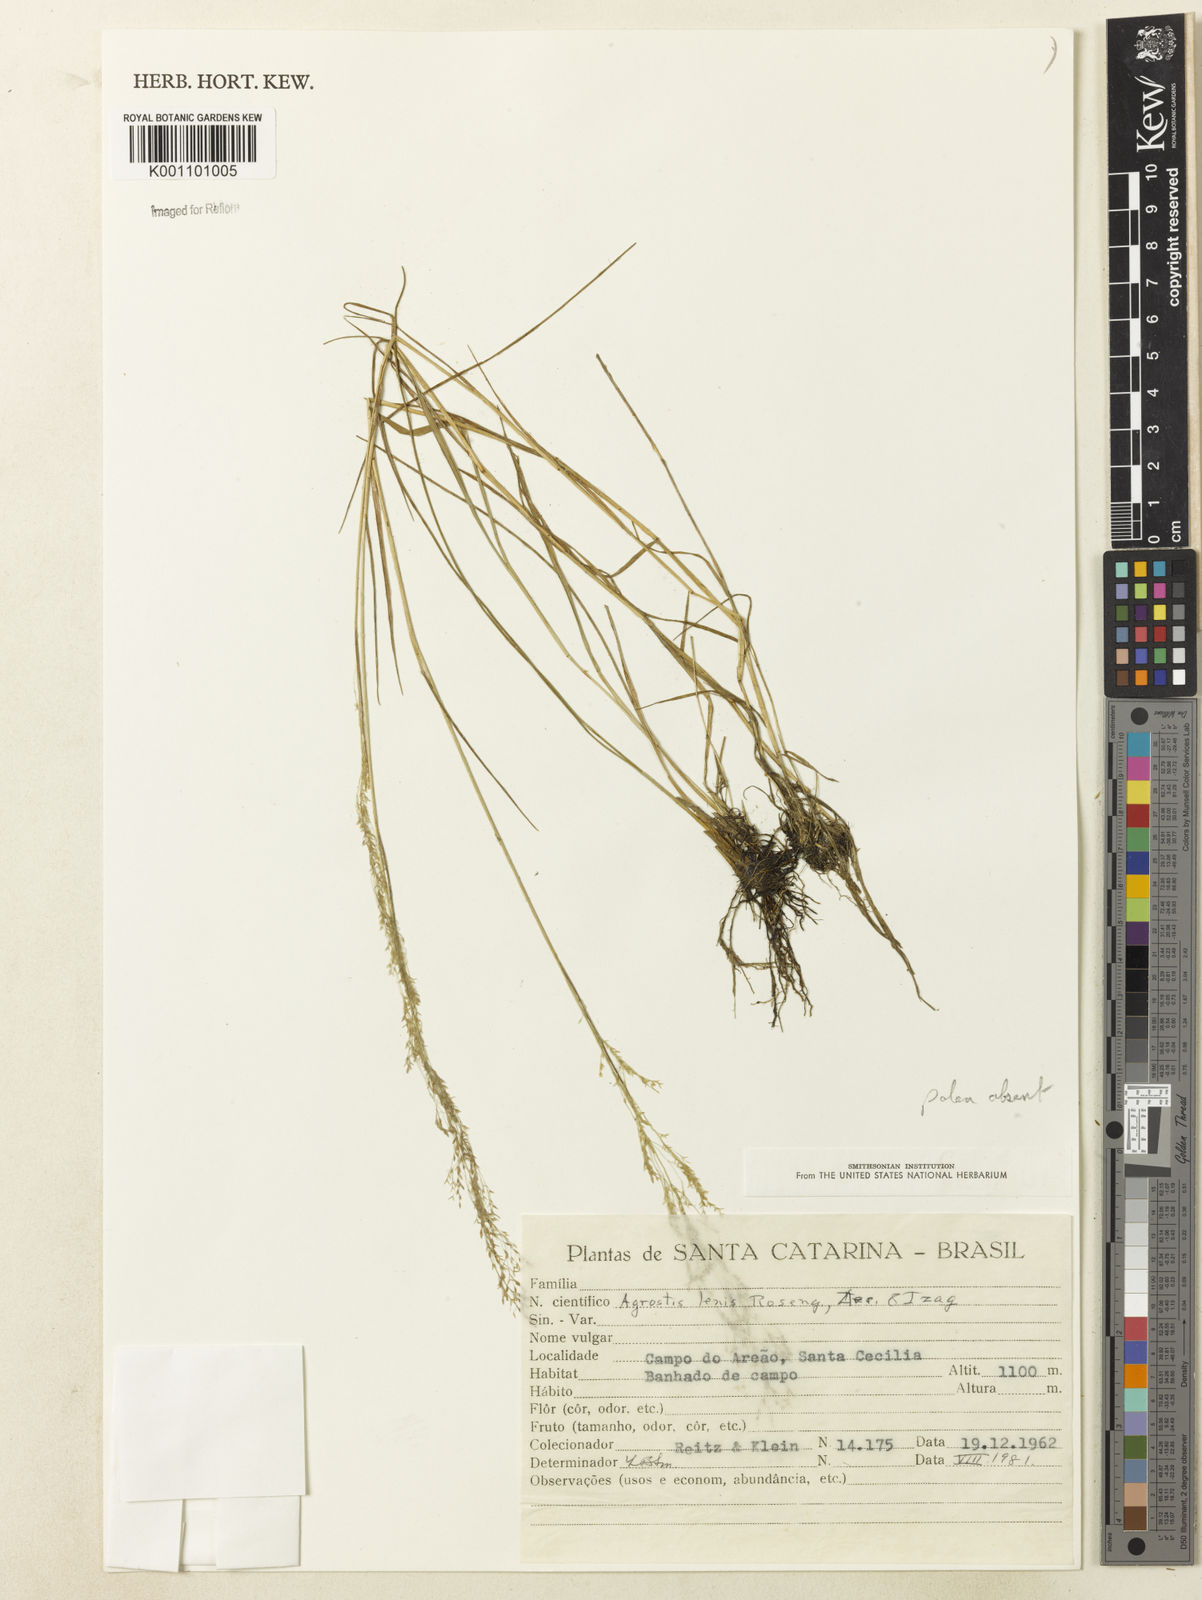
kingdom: Plantae
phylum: Tracheophyta
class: Liliopsida
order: Poales
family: Poaceae
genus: Agrostis
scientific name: Agrostis
